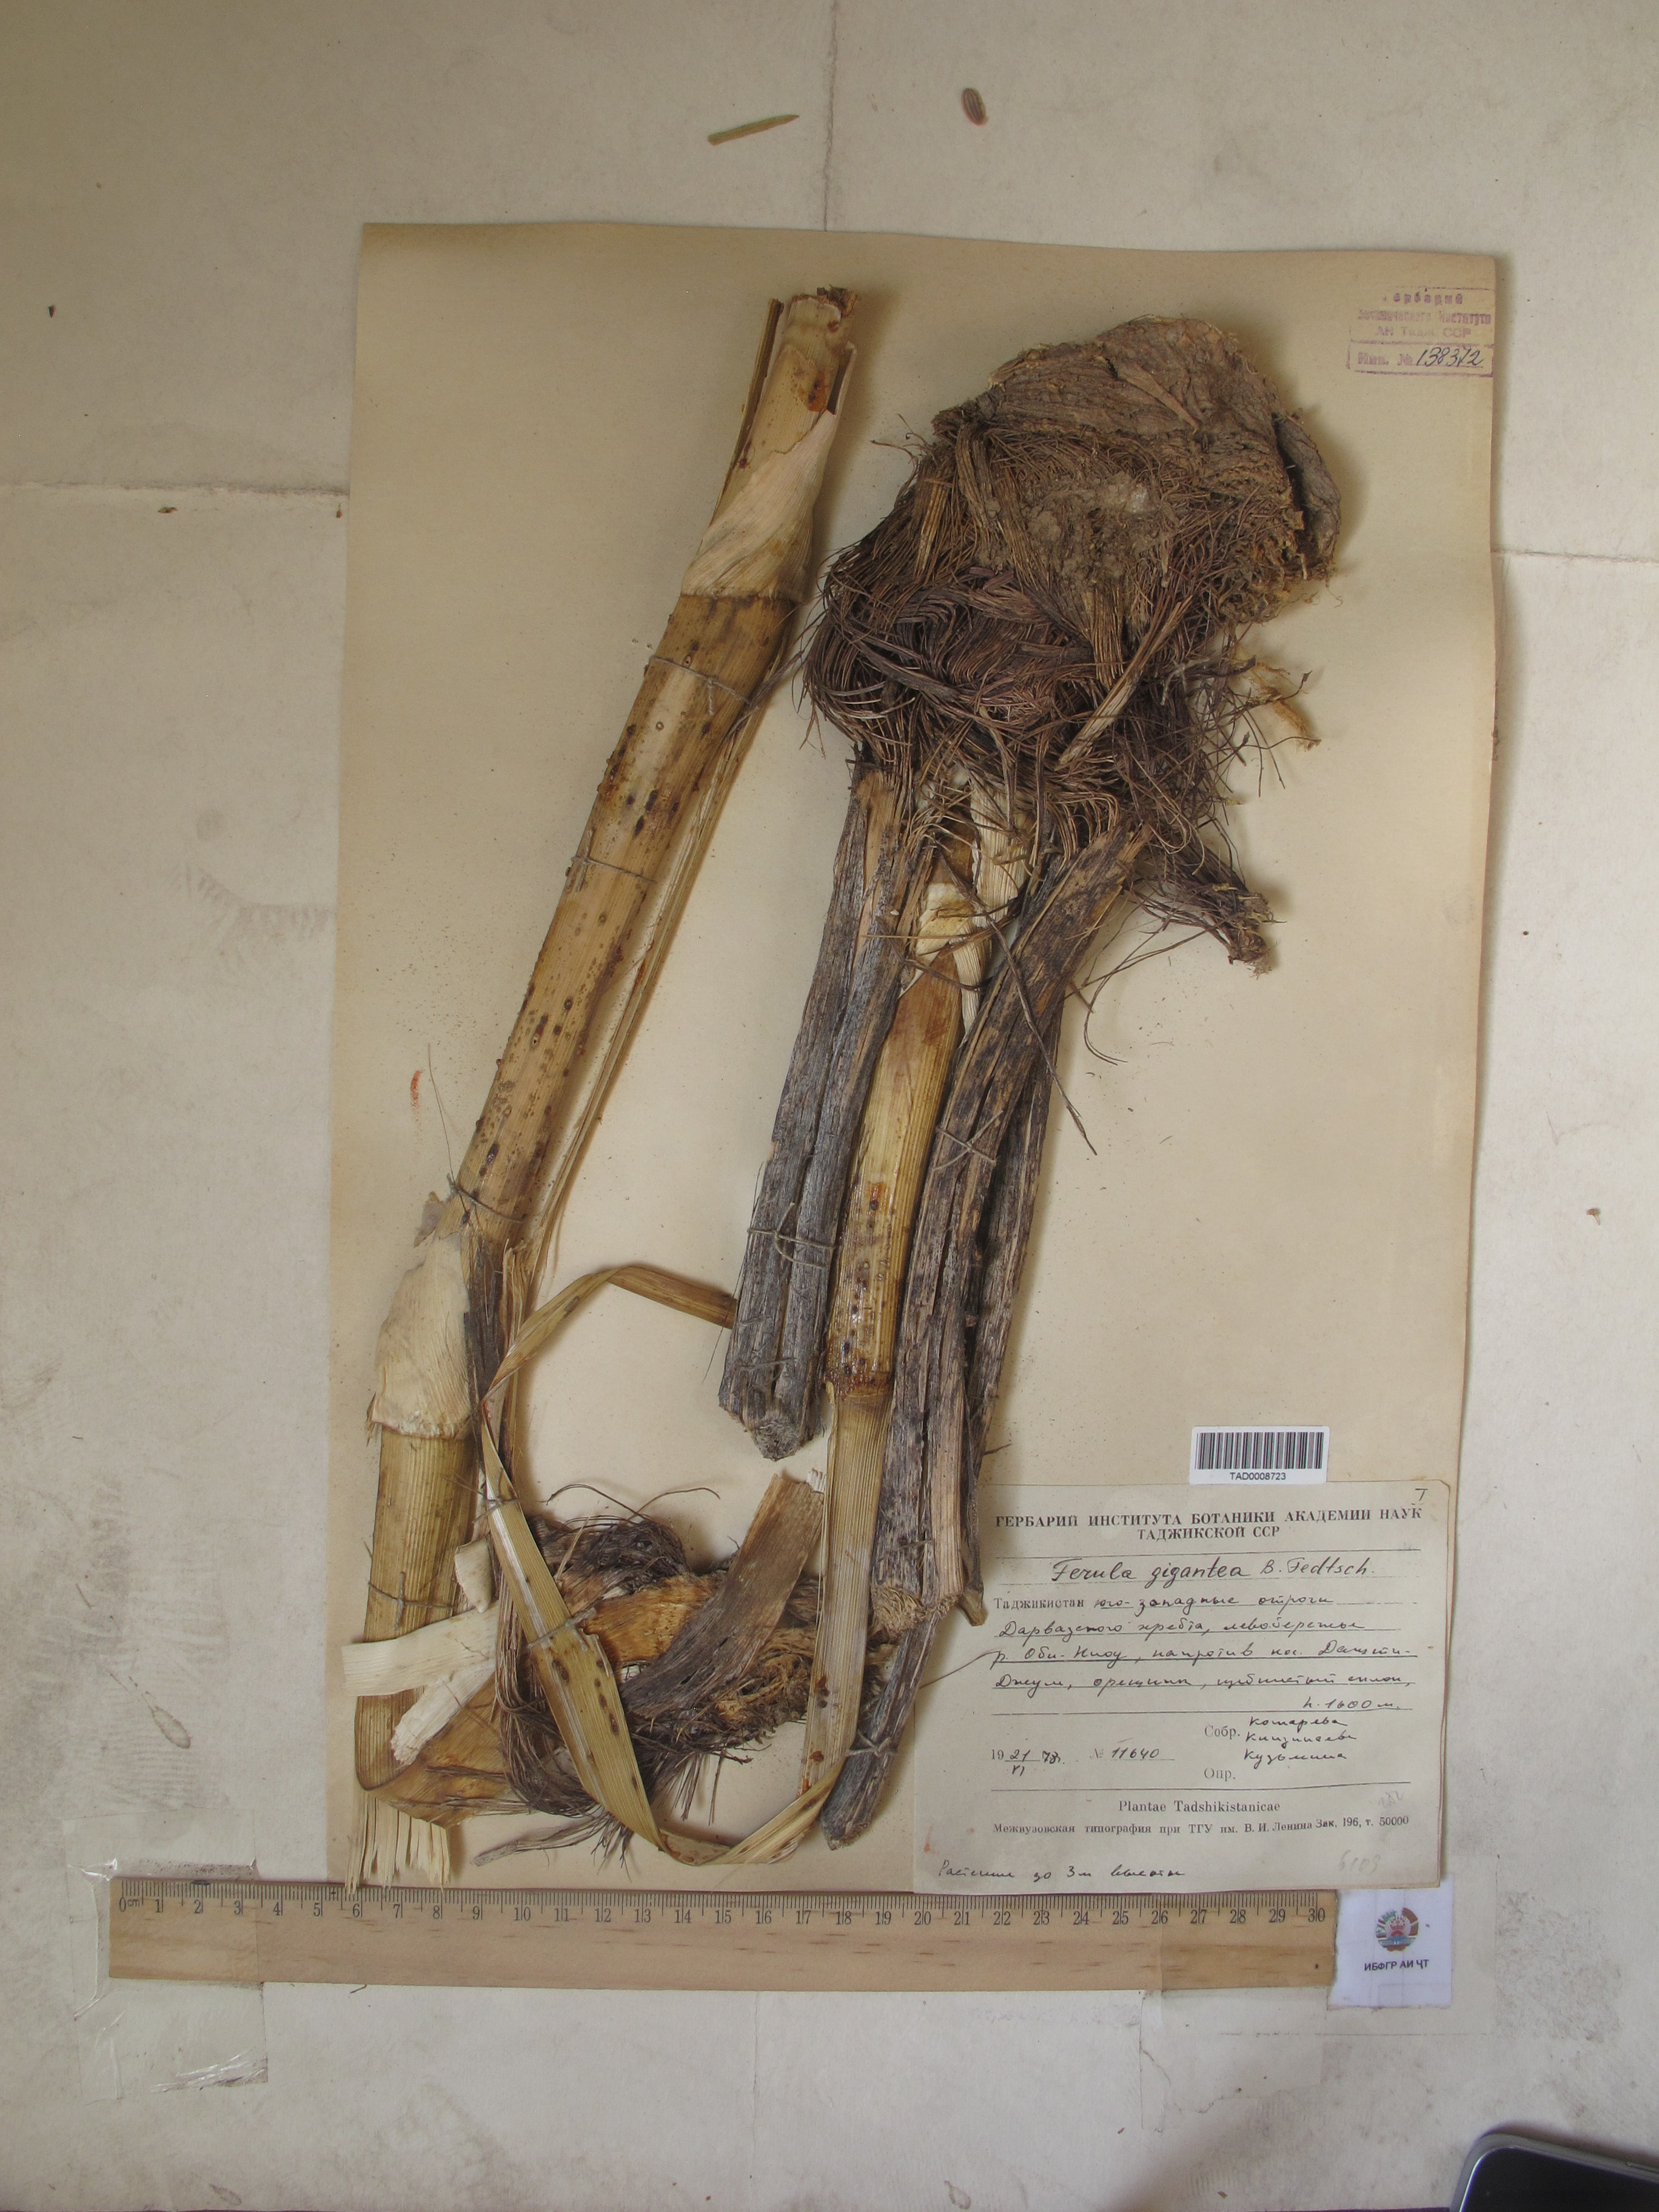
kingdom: Plantae
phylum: Tracheophyta
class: Magnoliopsida
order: Apiales
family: Apiaceae
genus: Ferula
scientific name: Ferula gigantea
